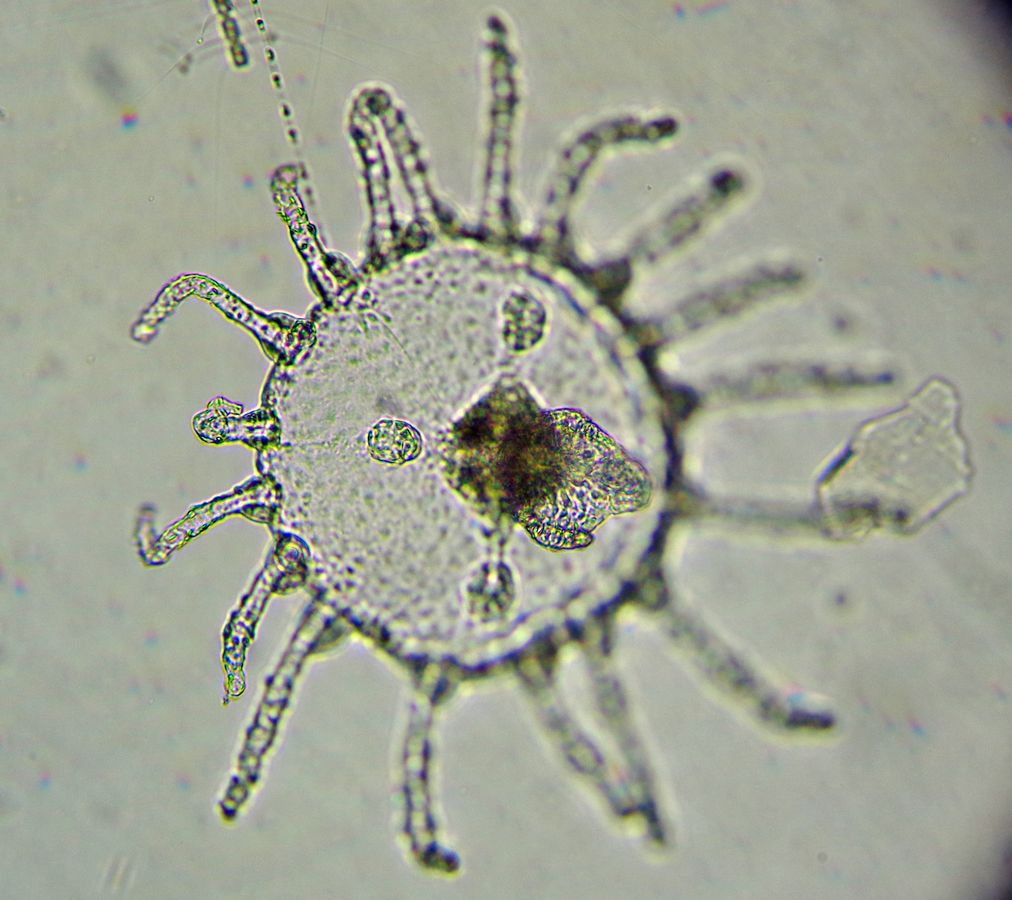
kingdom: Animalia
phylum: Cnidaria
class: Hydrozoa
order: Leptothecata
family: Campanulariidae
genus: Obelia
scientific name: Obelia geniculata
